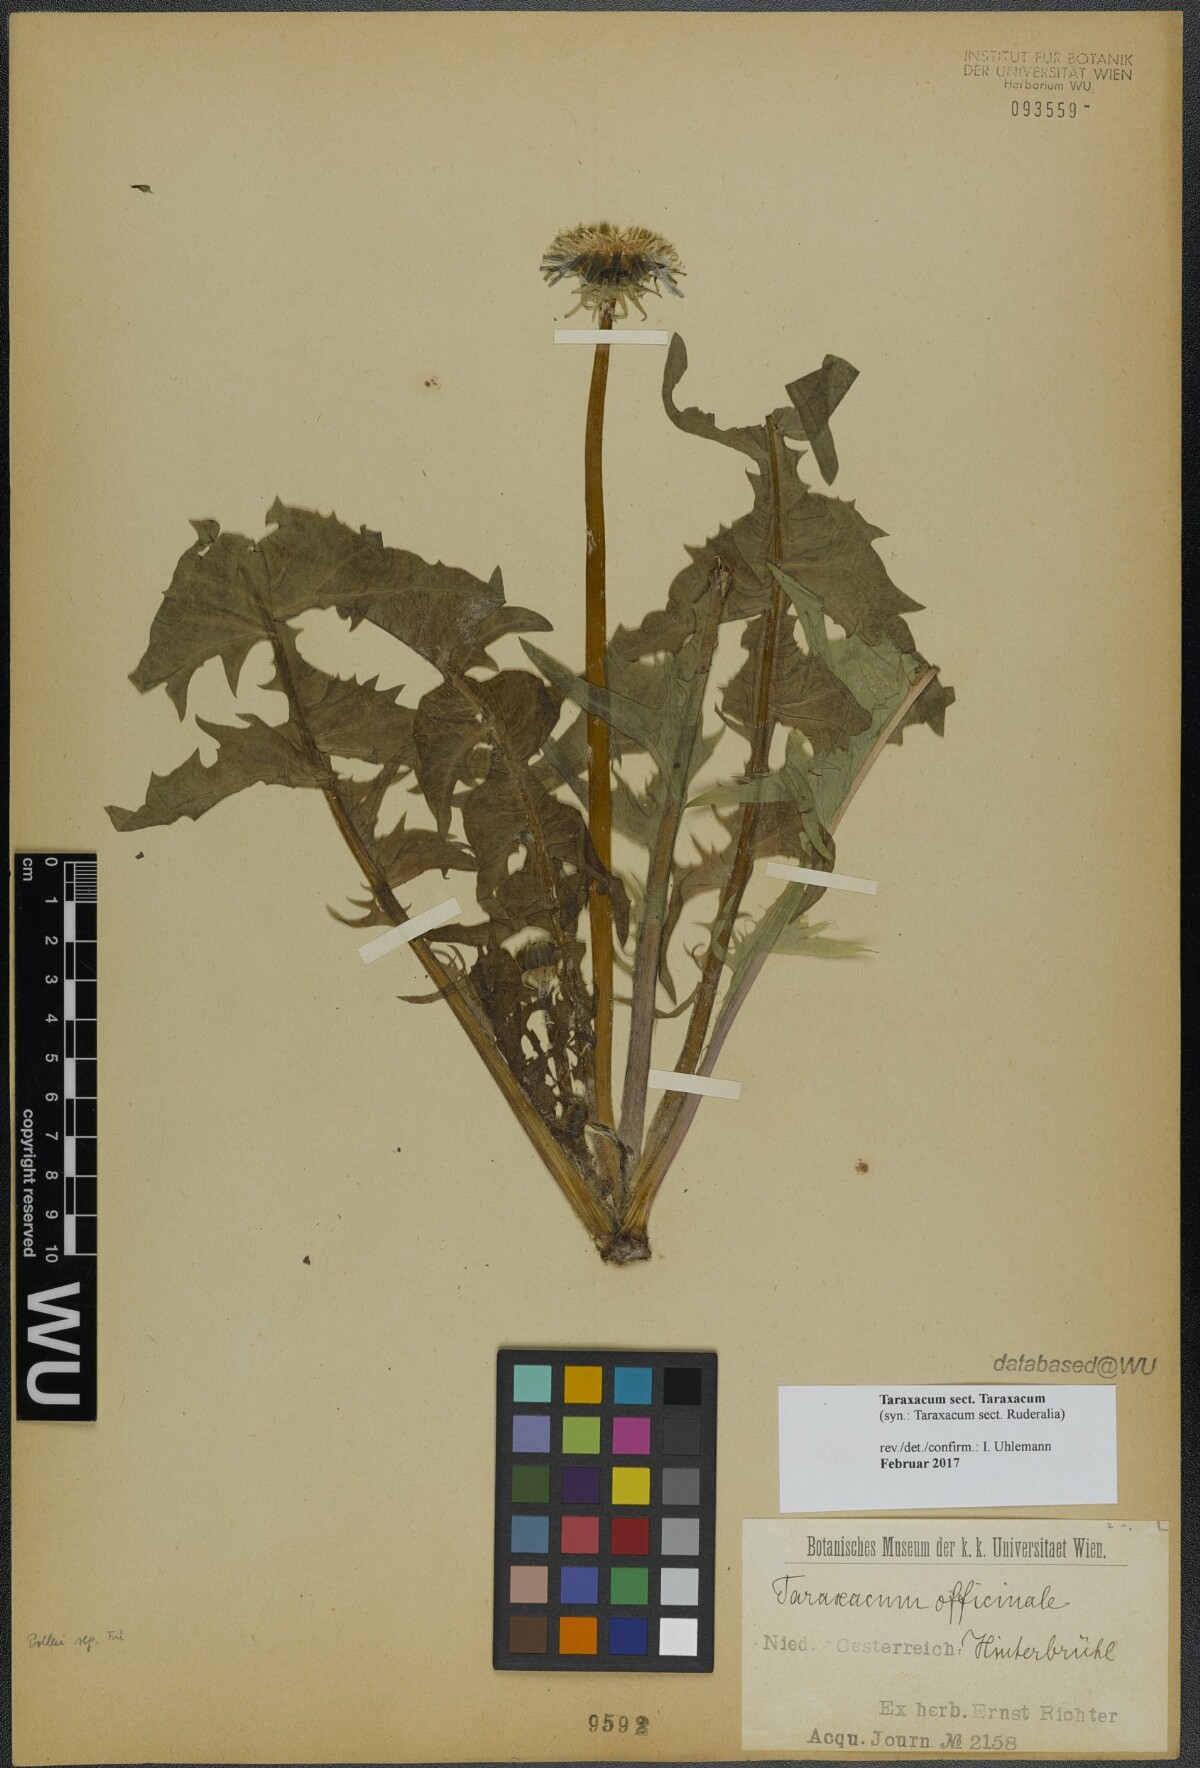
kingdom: Plantae
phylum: Tracheophyta
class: Magnoliopsida
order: Asterales
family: Asteraceae
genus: Taraxacum
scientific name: Taraxacum
